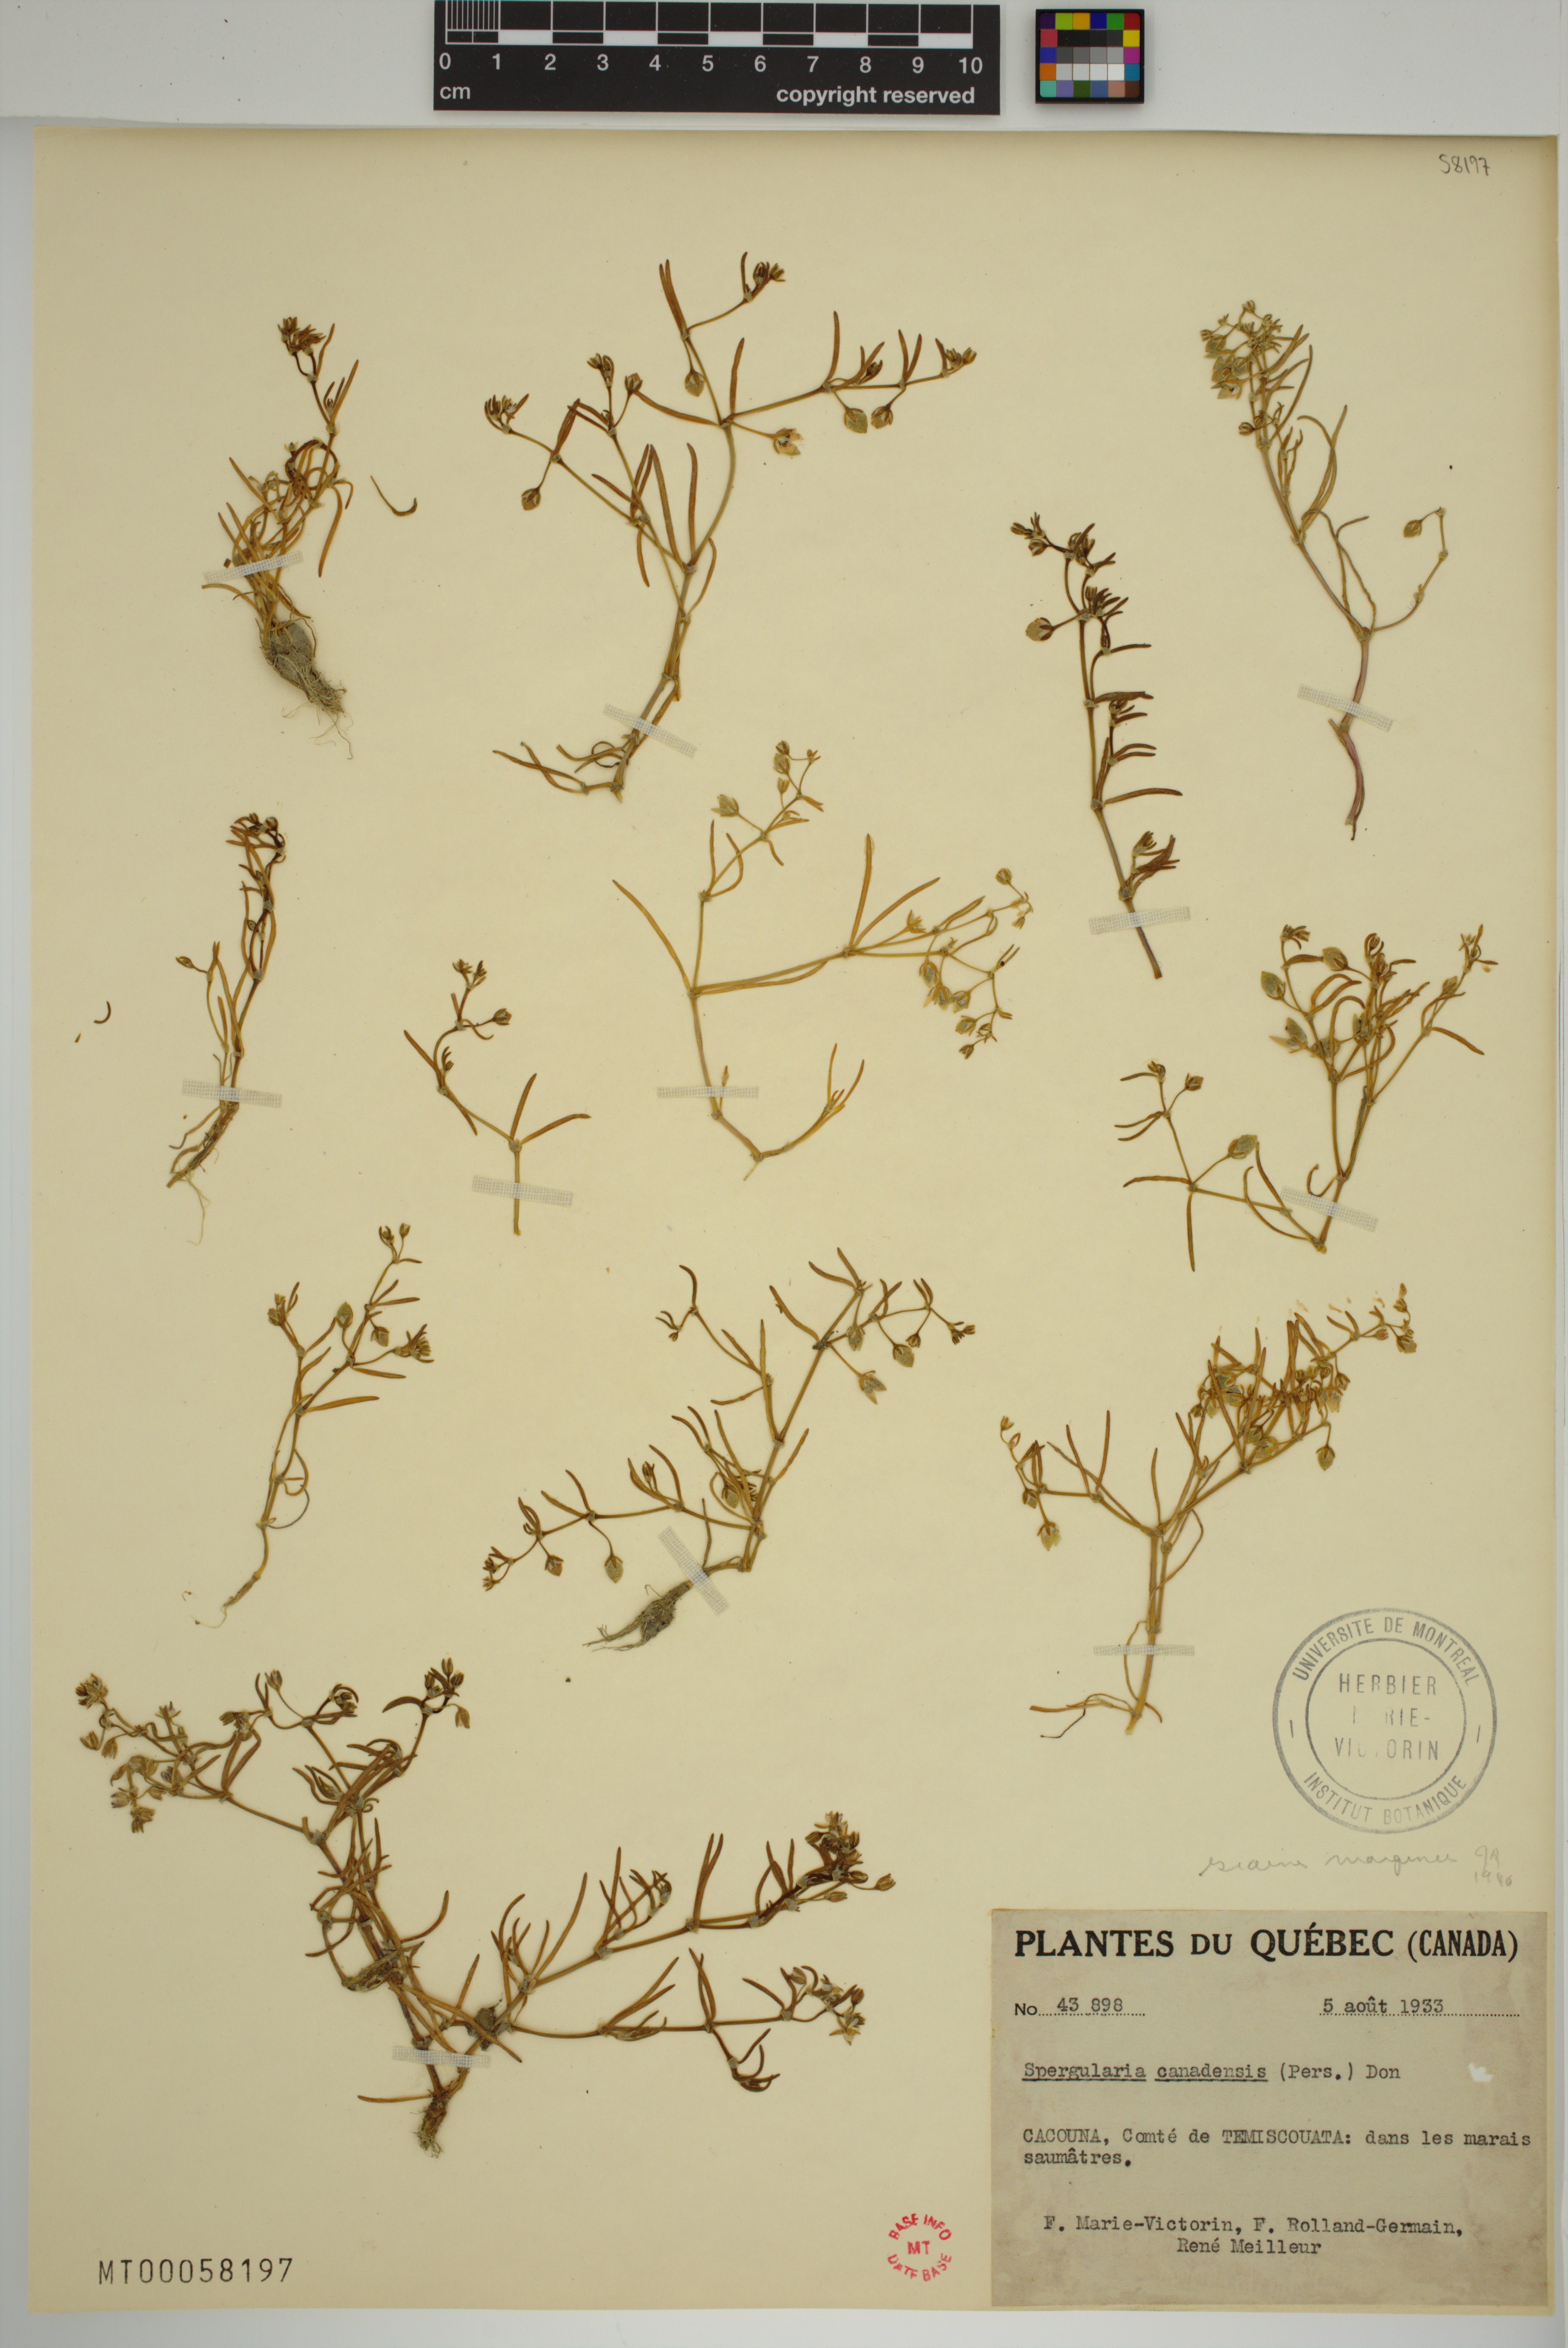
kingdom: Plantae
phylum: Tracheophyta
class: Magnoliopsida
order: Caryophyllales
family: Caryophyllaceae
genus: Spergularia
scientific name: Spergularia canadensis
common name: Canada sand-spurrey
